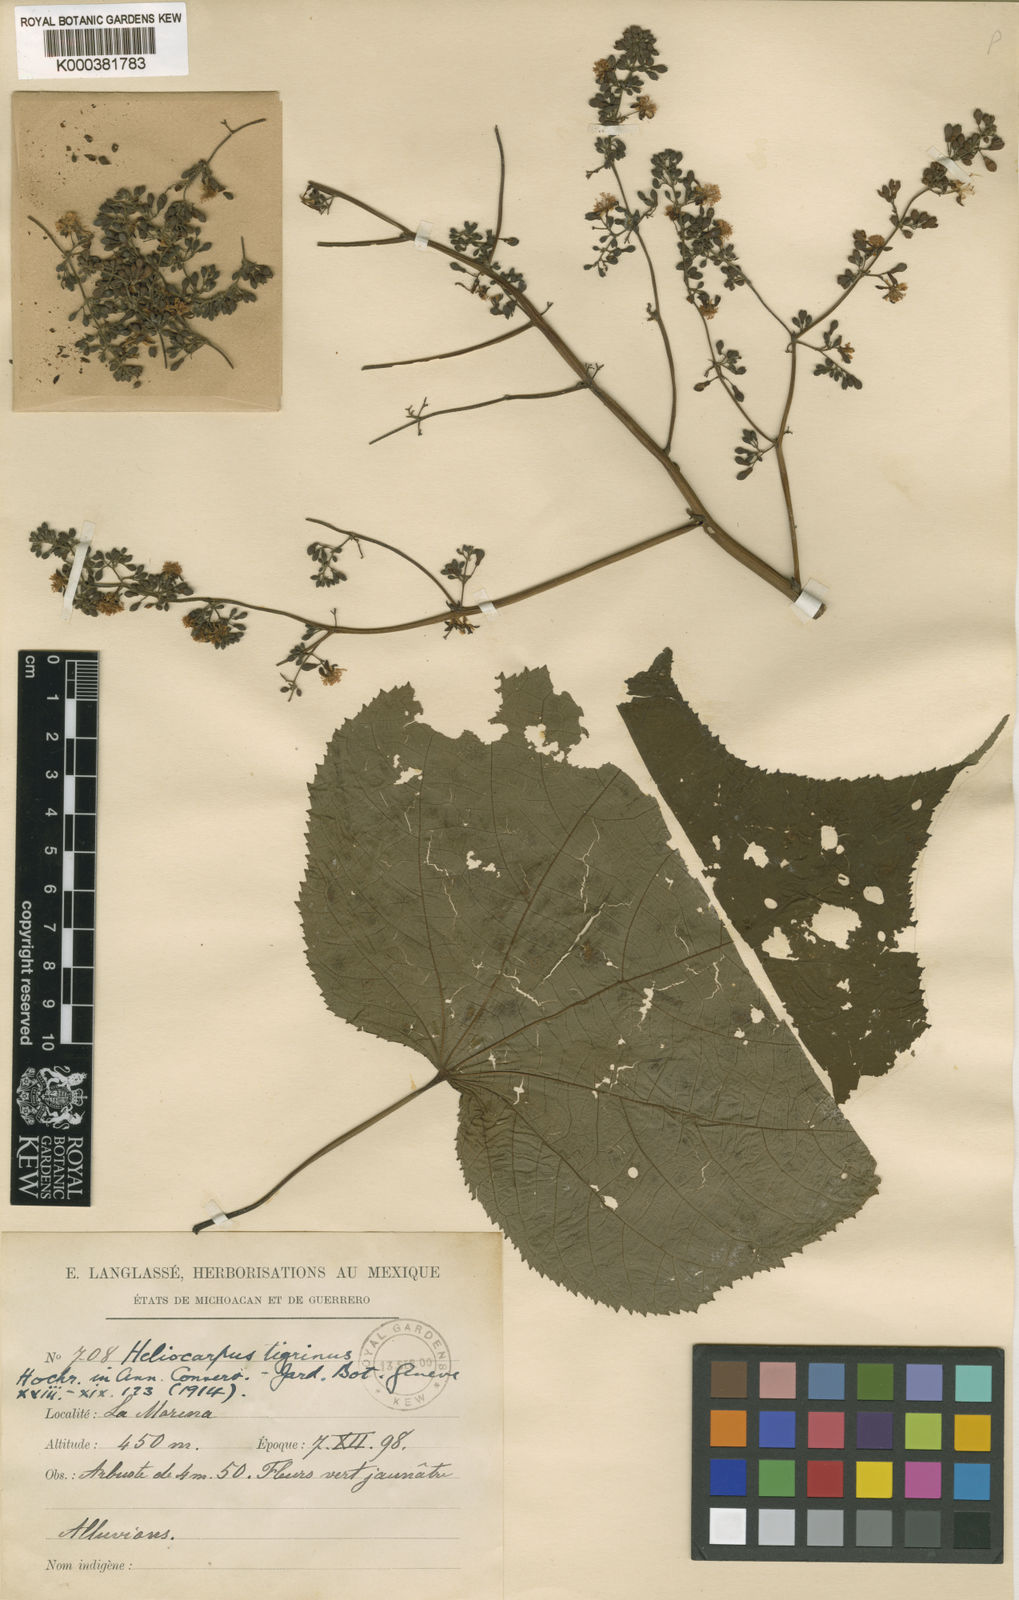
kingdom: Plantae
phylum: Tracheophyta
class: Magnoliopsida
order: Malvales
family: Malvaceae
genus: Triumfetta
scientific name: Triumfetta paniculata
